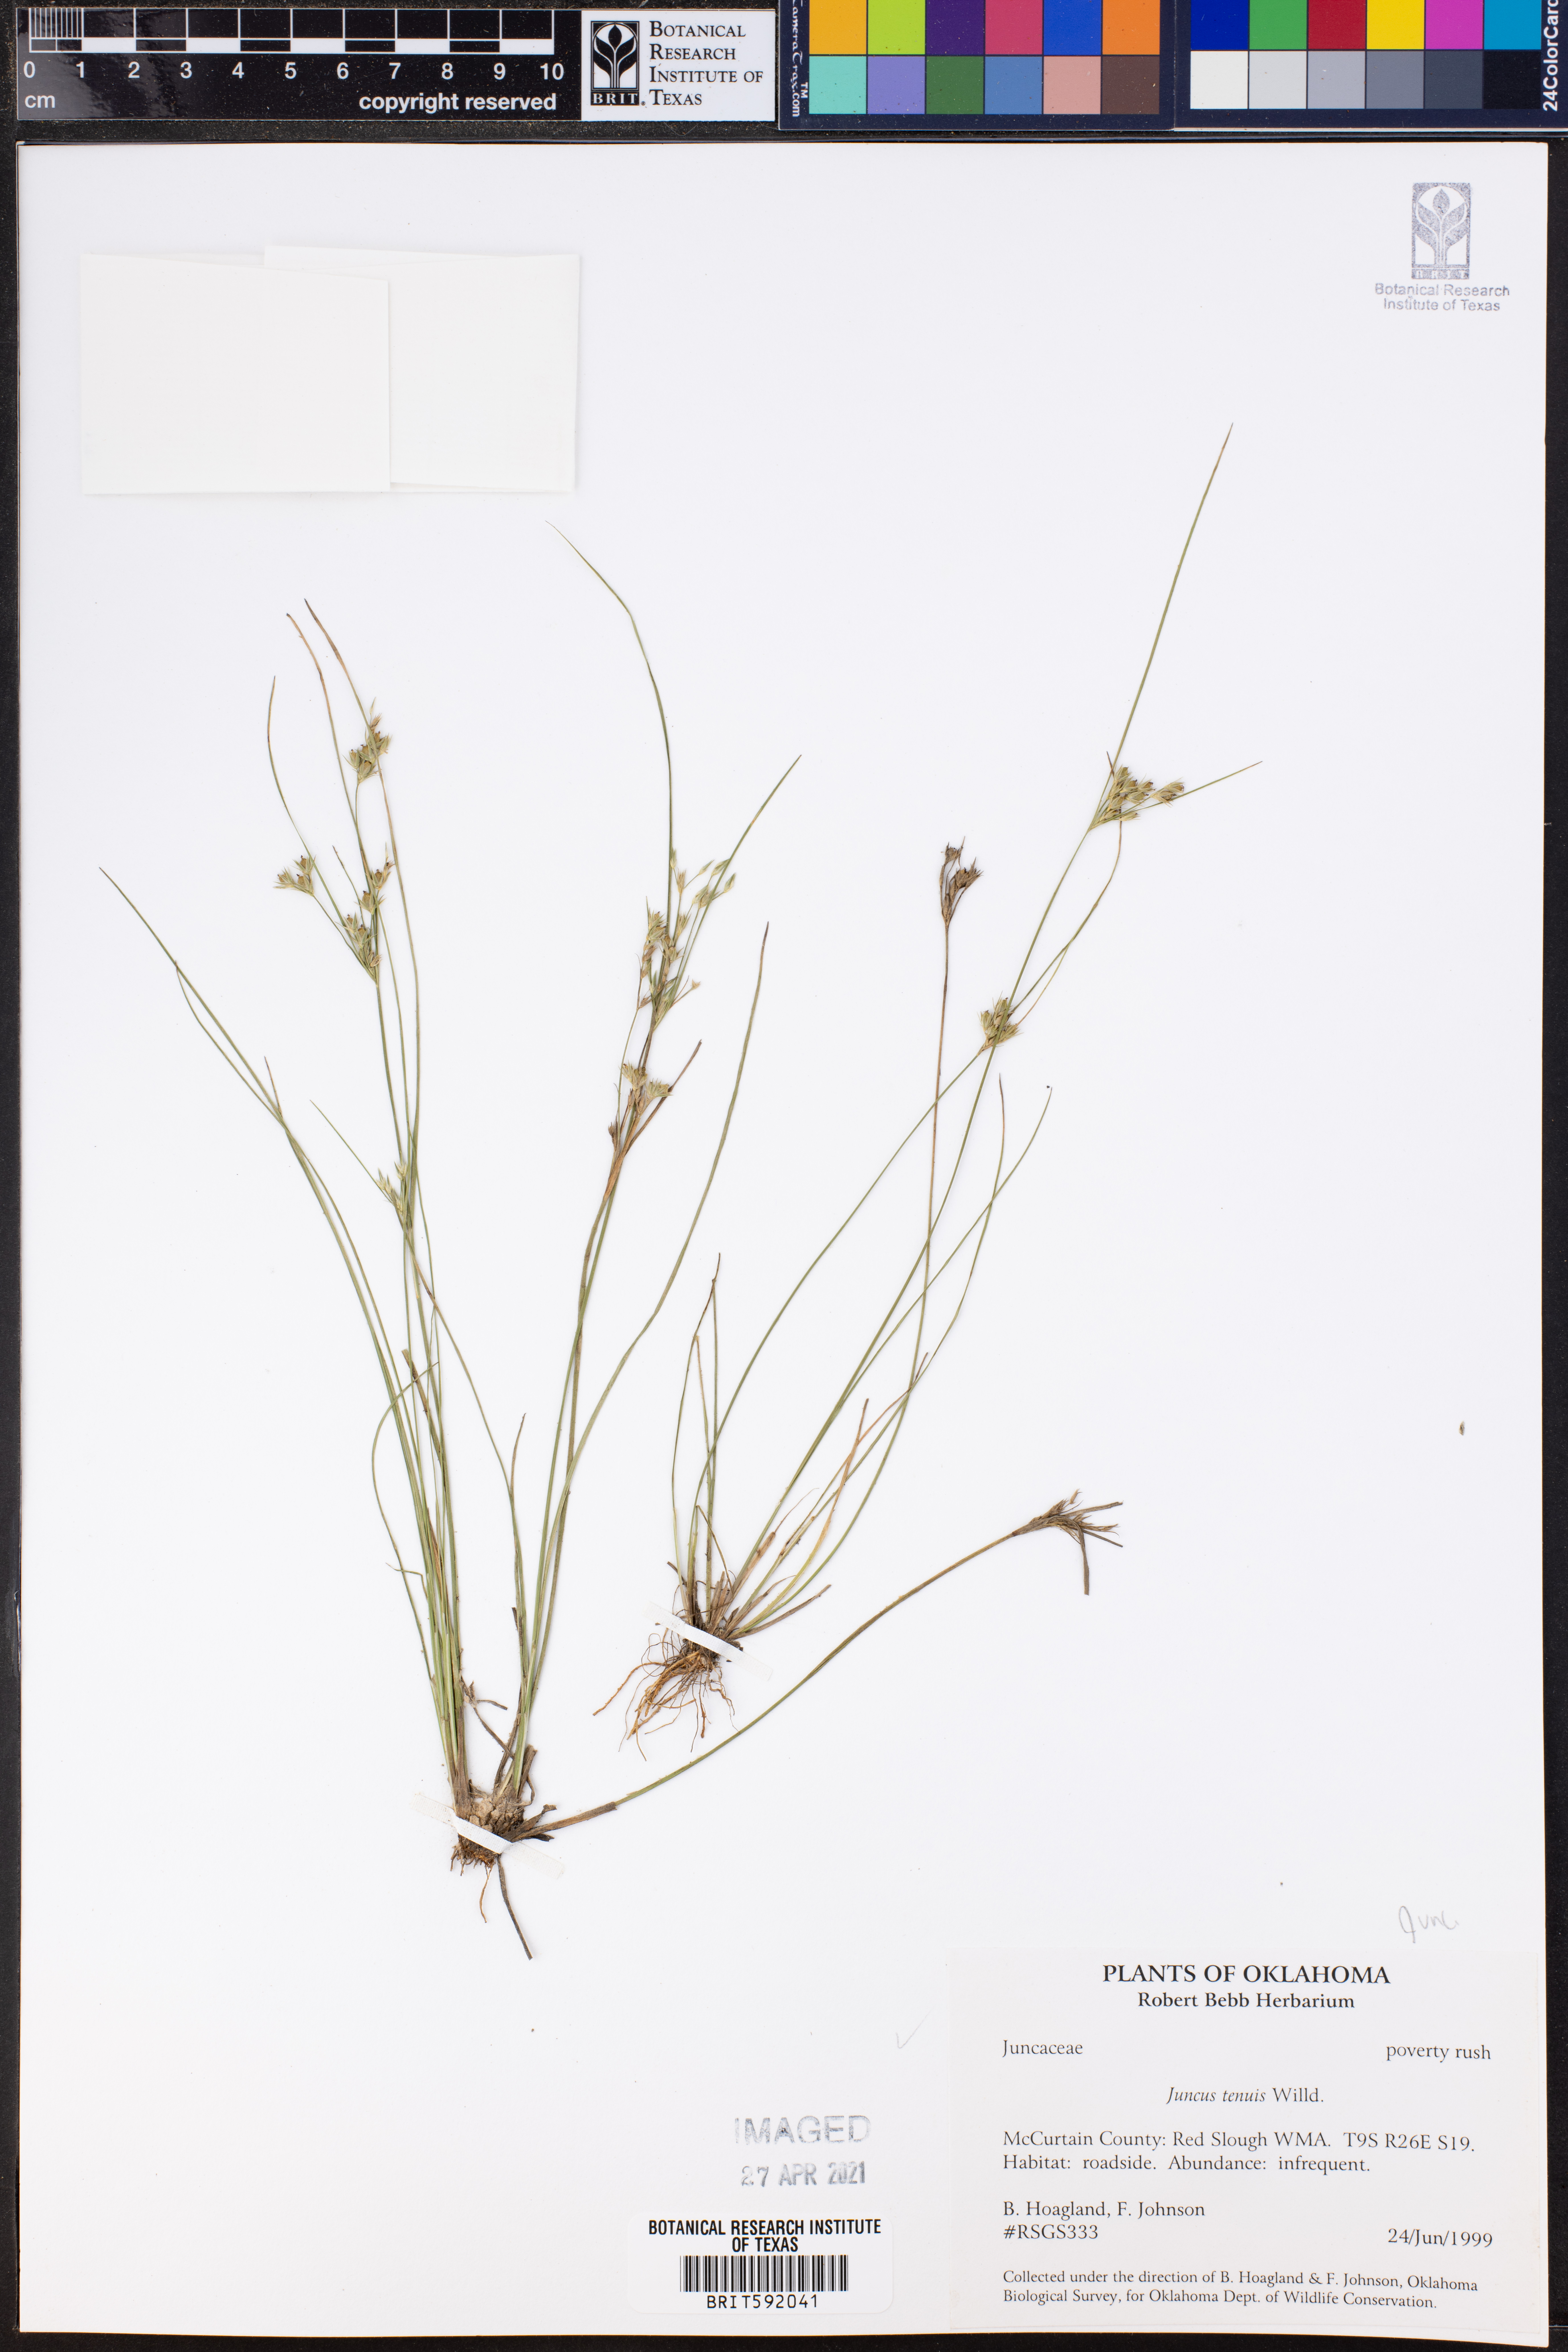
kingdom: Plantae
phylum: Tracheophyta
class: Liliopsida
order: Poales
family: Juncaceae
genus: Juncus
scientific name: Juncus tenuis
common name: Slender rush
